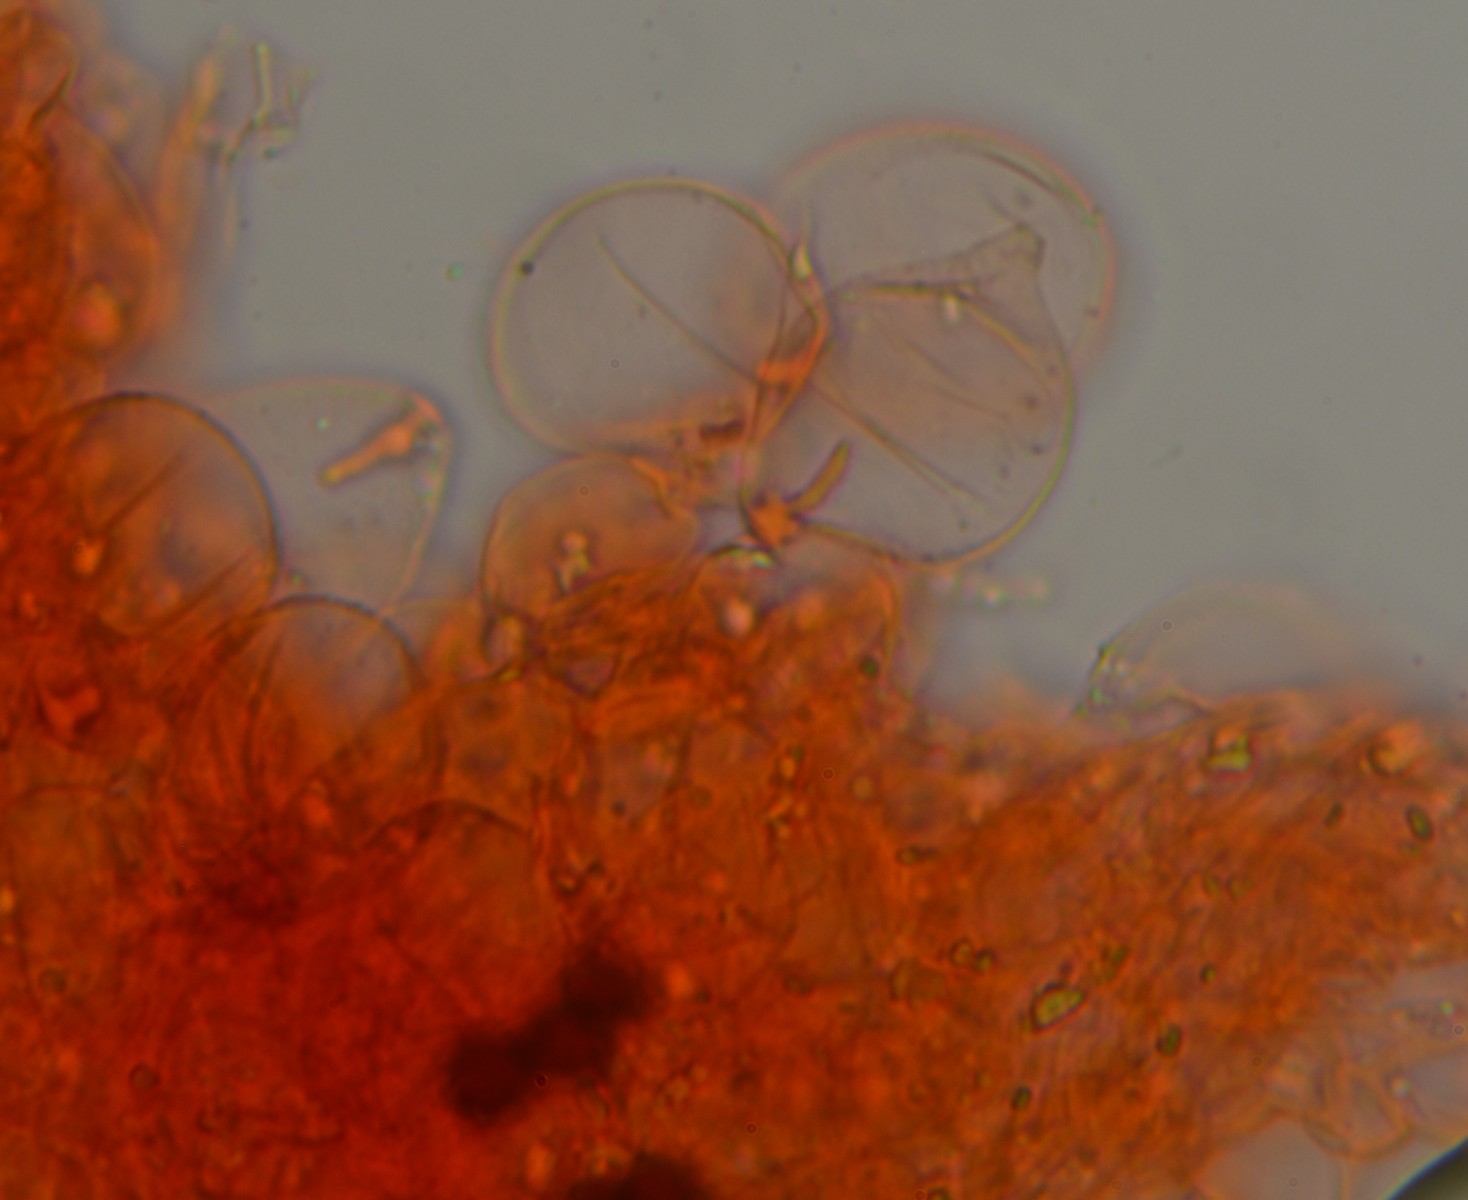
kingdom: Fungi
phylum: Basidiomycota
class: Agaricomycetes
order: Agaricales
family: Psathyrellaceae
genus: Narcissea
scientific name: Narcissea ephemeroides
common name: ring-blækhat
